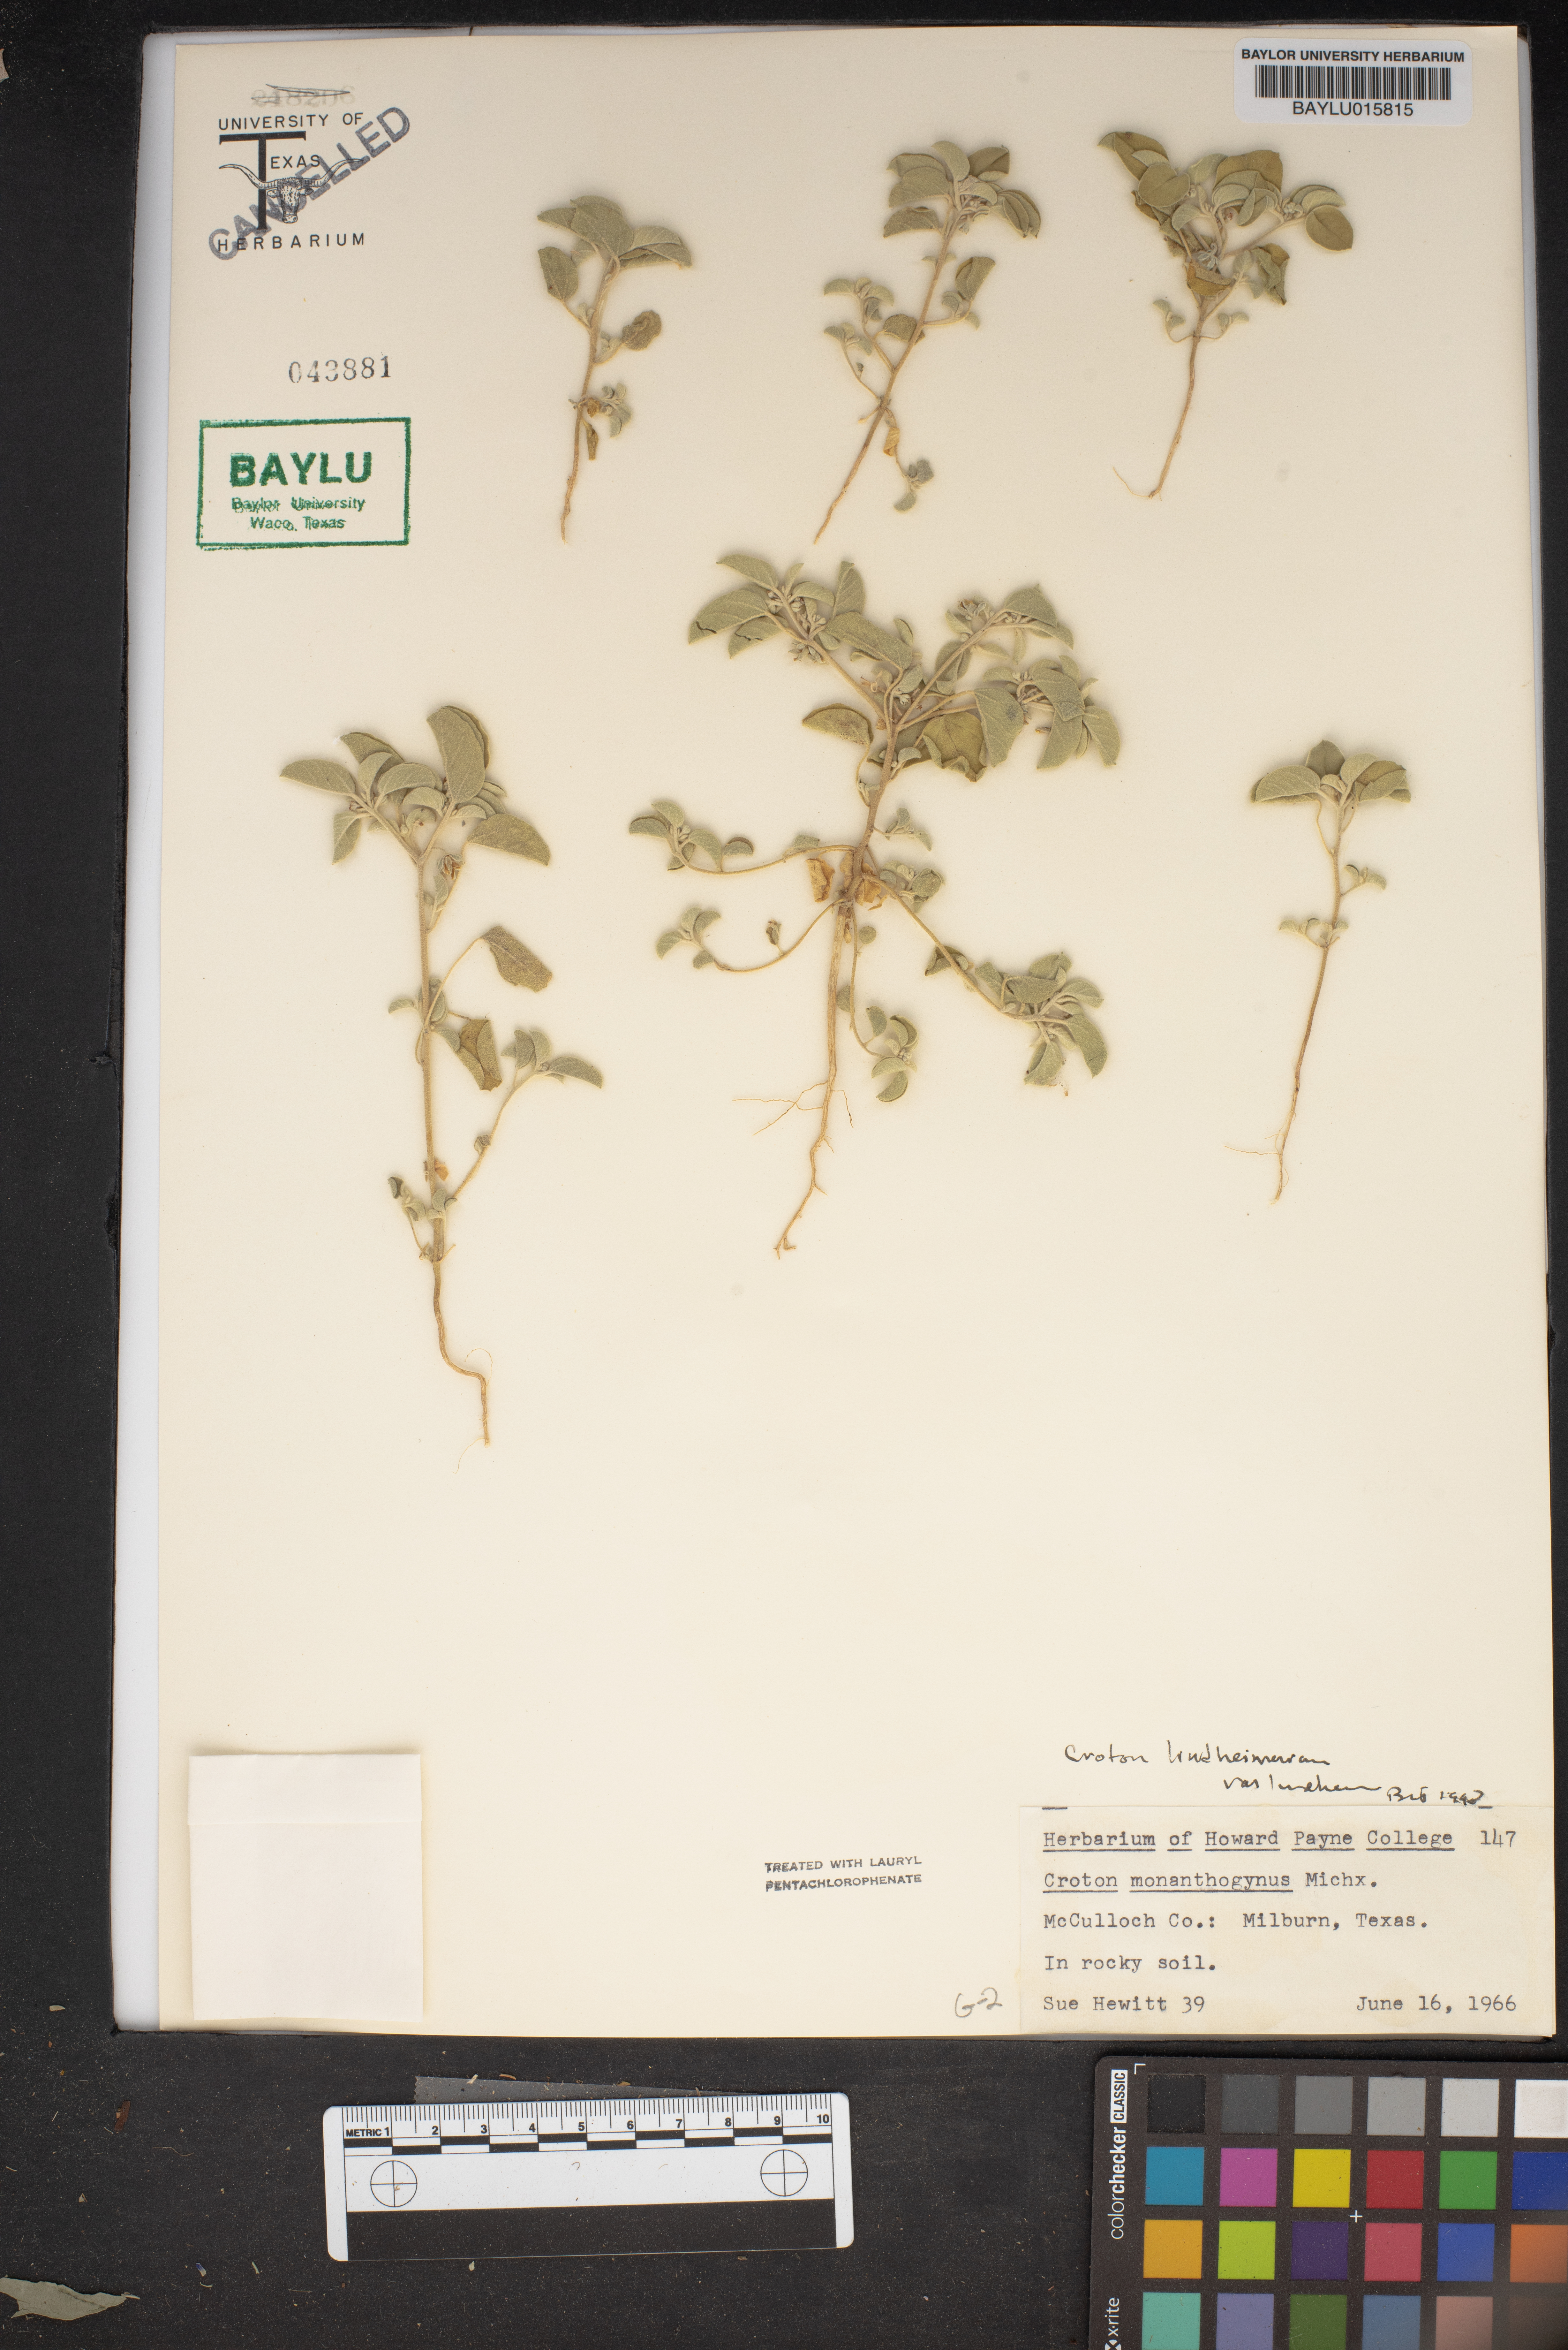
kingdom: Plantae
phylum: Tracheophyta
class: Magnoliopsida
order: Malpighiales
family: Euphorbiaceae
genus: Croton
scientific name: Croton monanthogynus
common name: One-seed croton
